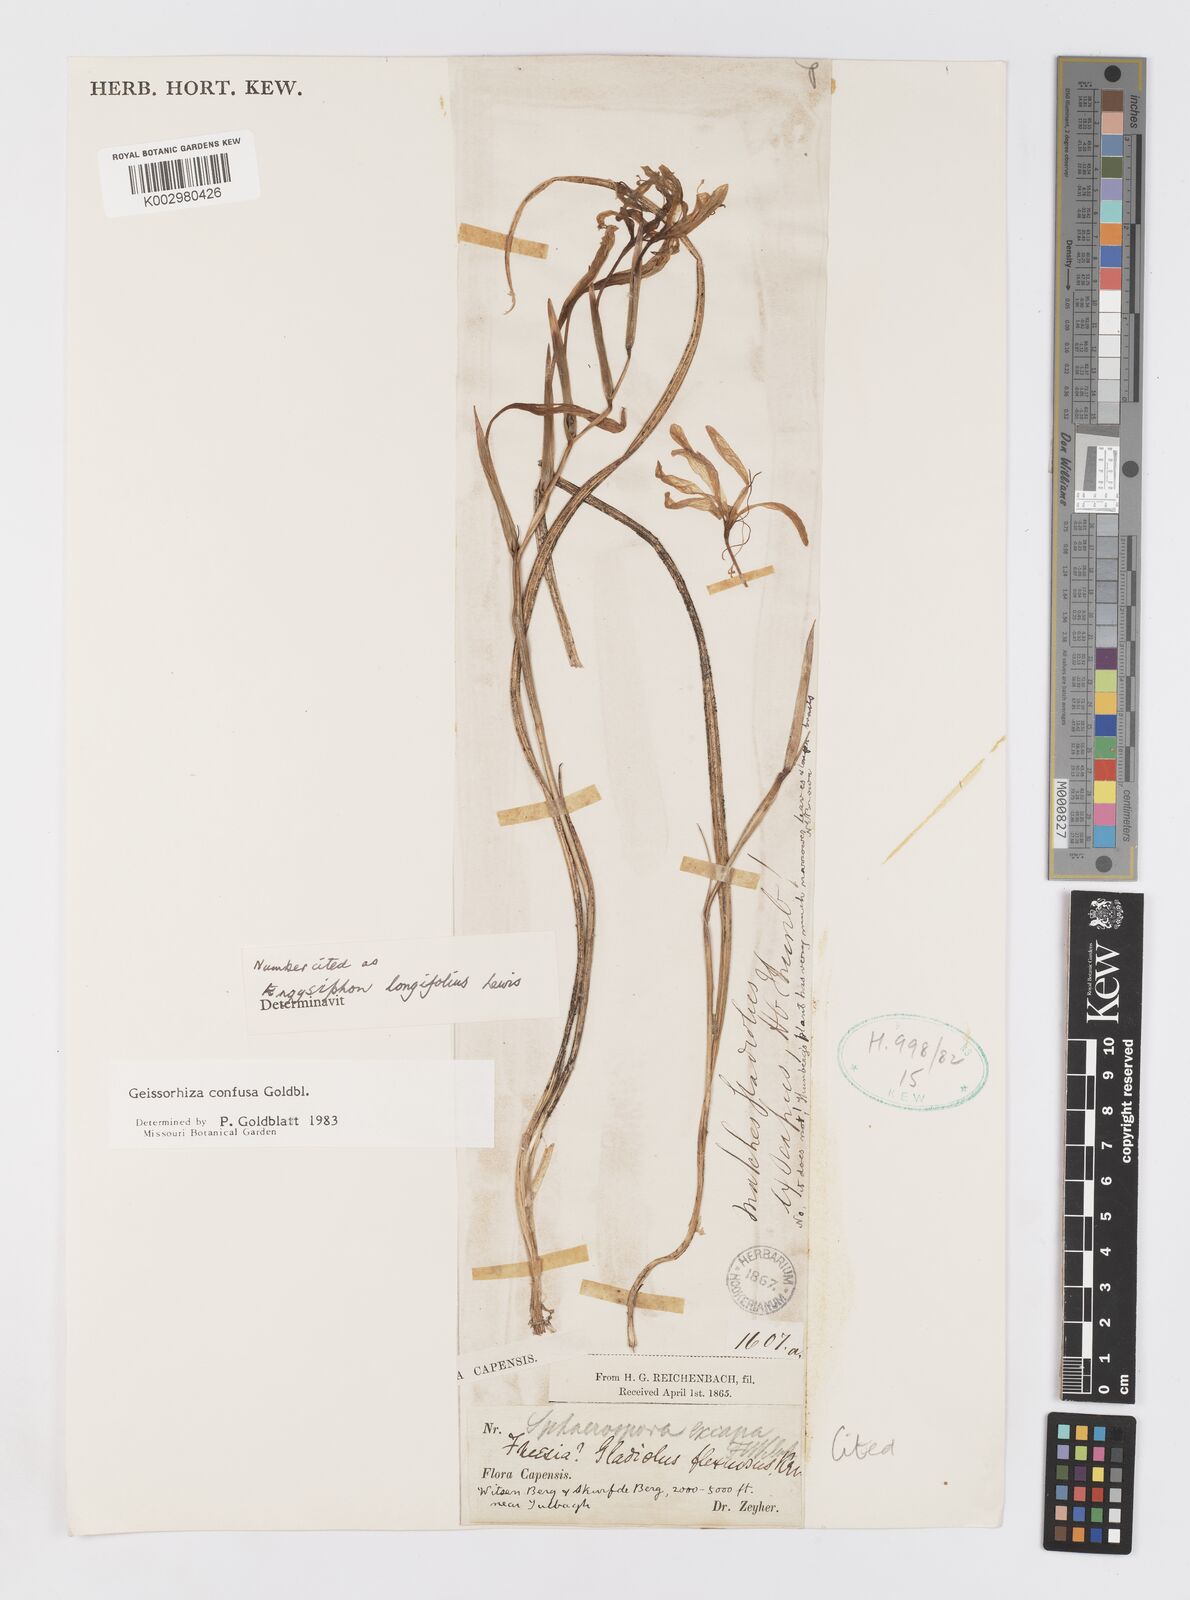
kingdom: Plantae
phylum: Tracheophyta
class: Liliopsida
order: Asparagales
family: Iridaceae
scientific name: Iridaceae
